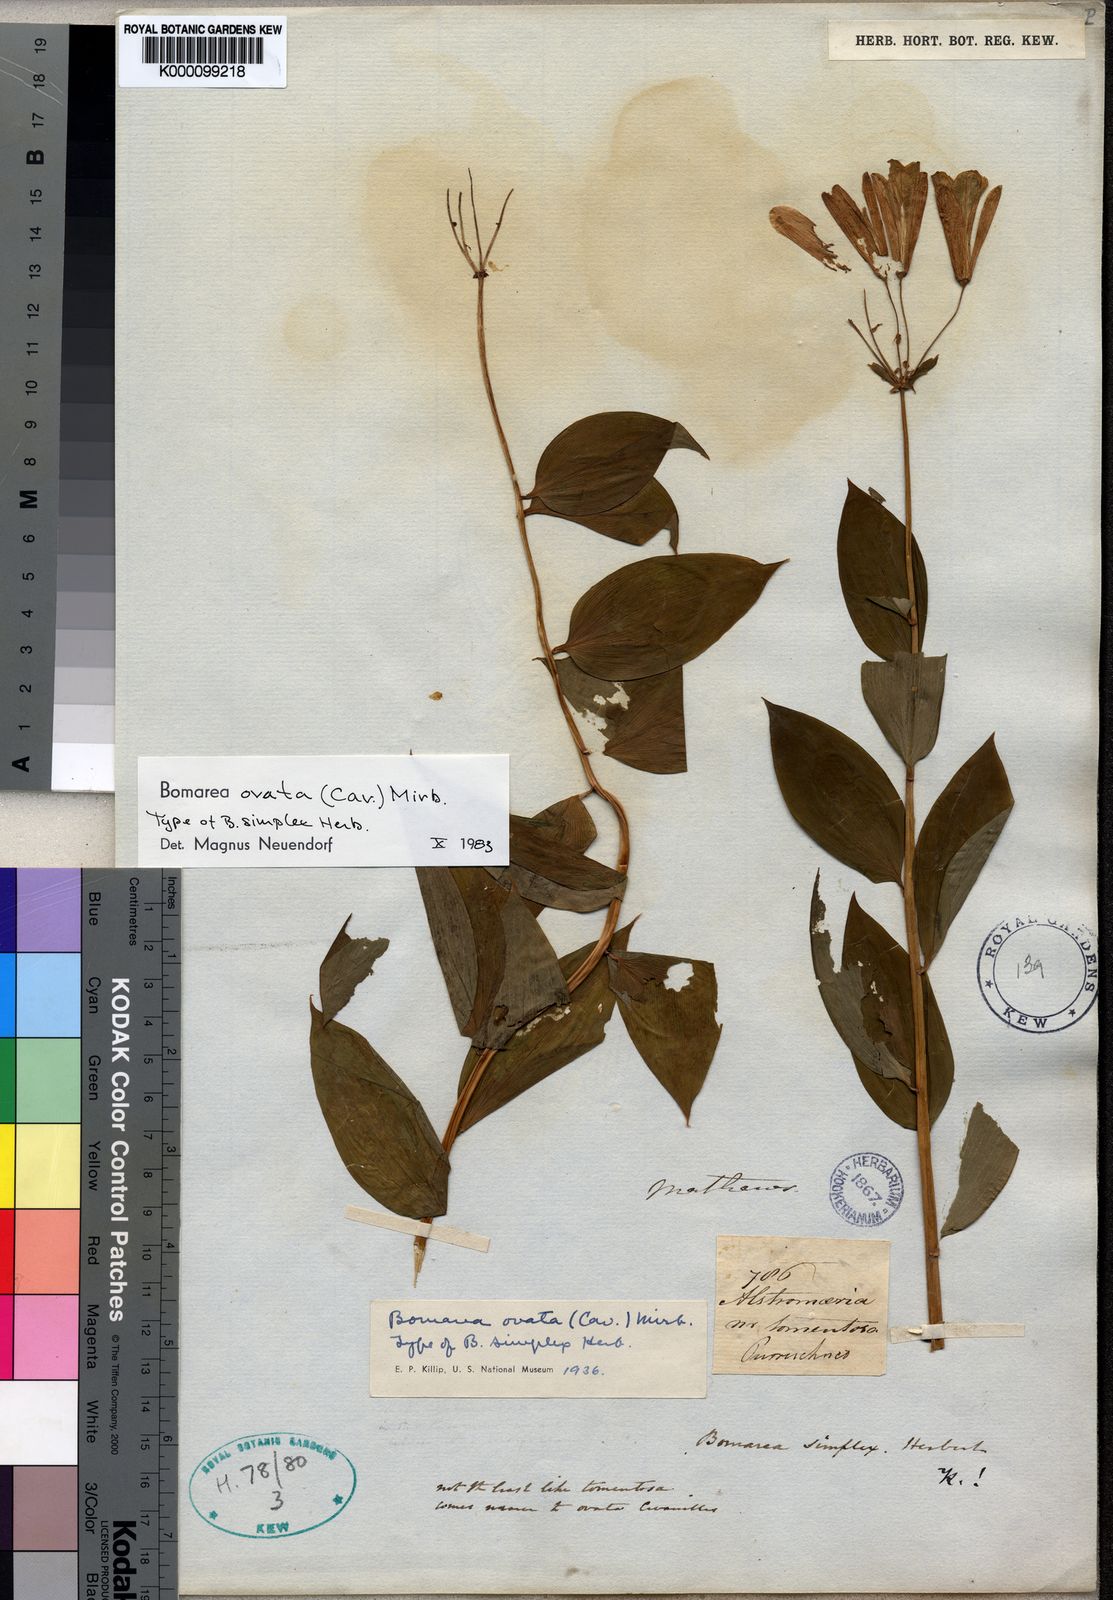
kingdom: Plantae
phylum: Tracheophyta
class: Liliopsida
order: Liliales
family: Alstroemeriaceae
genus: Bomarea
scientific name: Bomarea ovata
